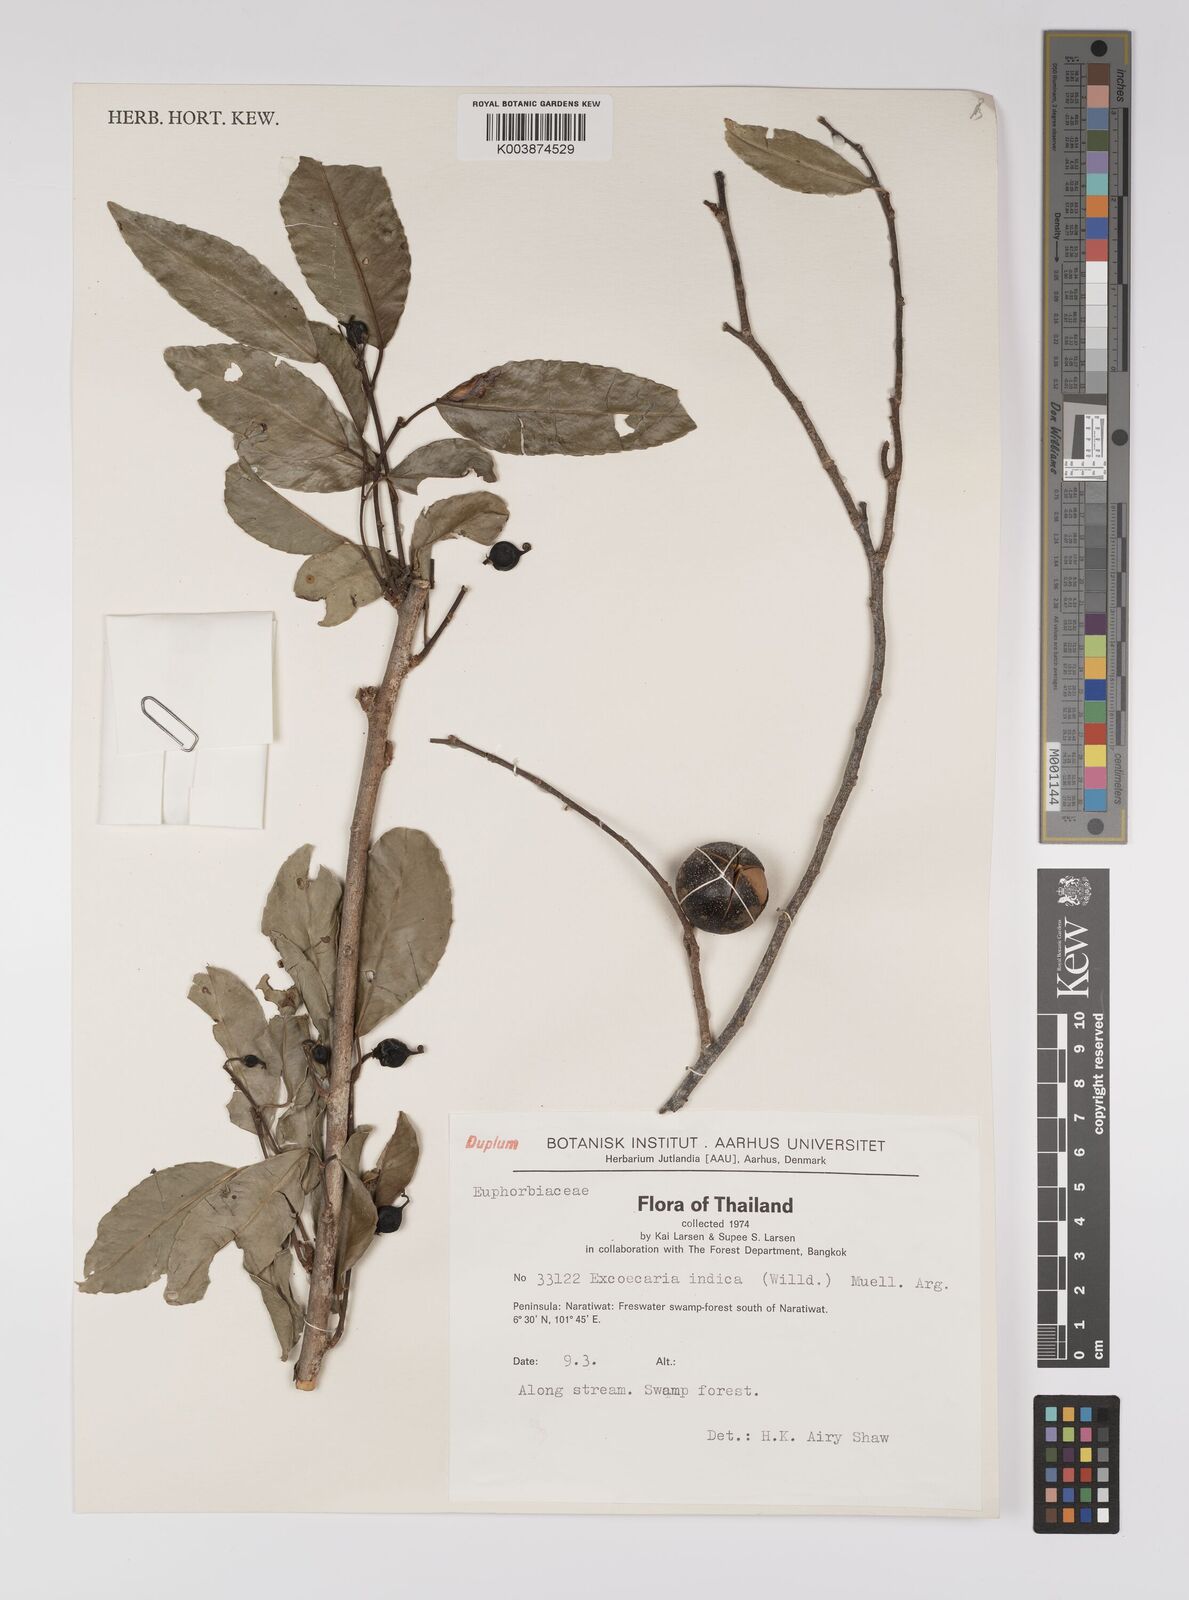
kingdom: Plantae
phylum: Tracheophyta
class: Magnoliopsida
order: Malpighiales
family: Euphorbiaceae
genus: Shirakiopsis
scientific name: Shirakiopsis indica
